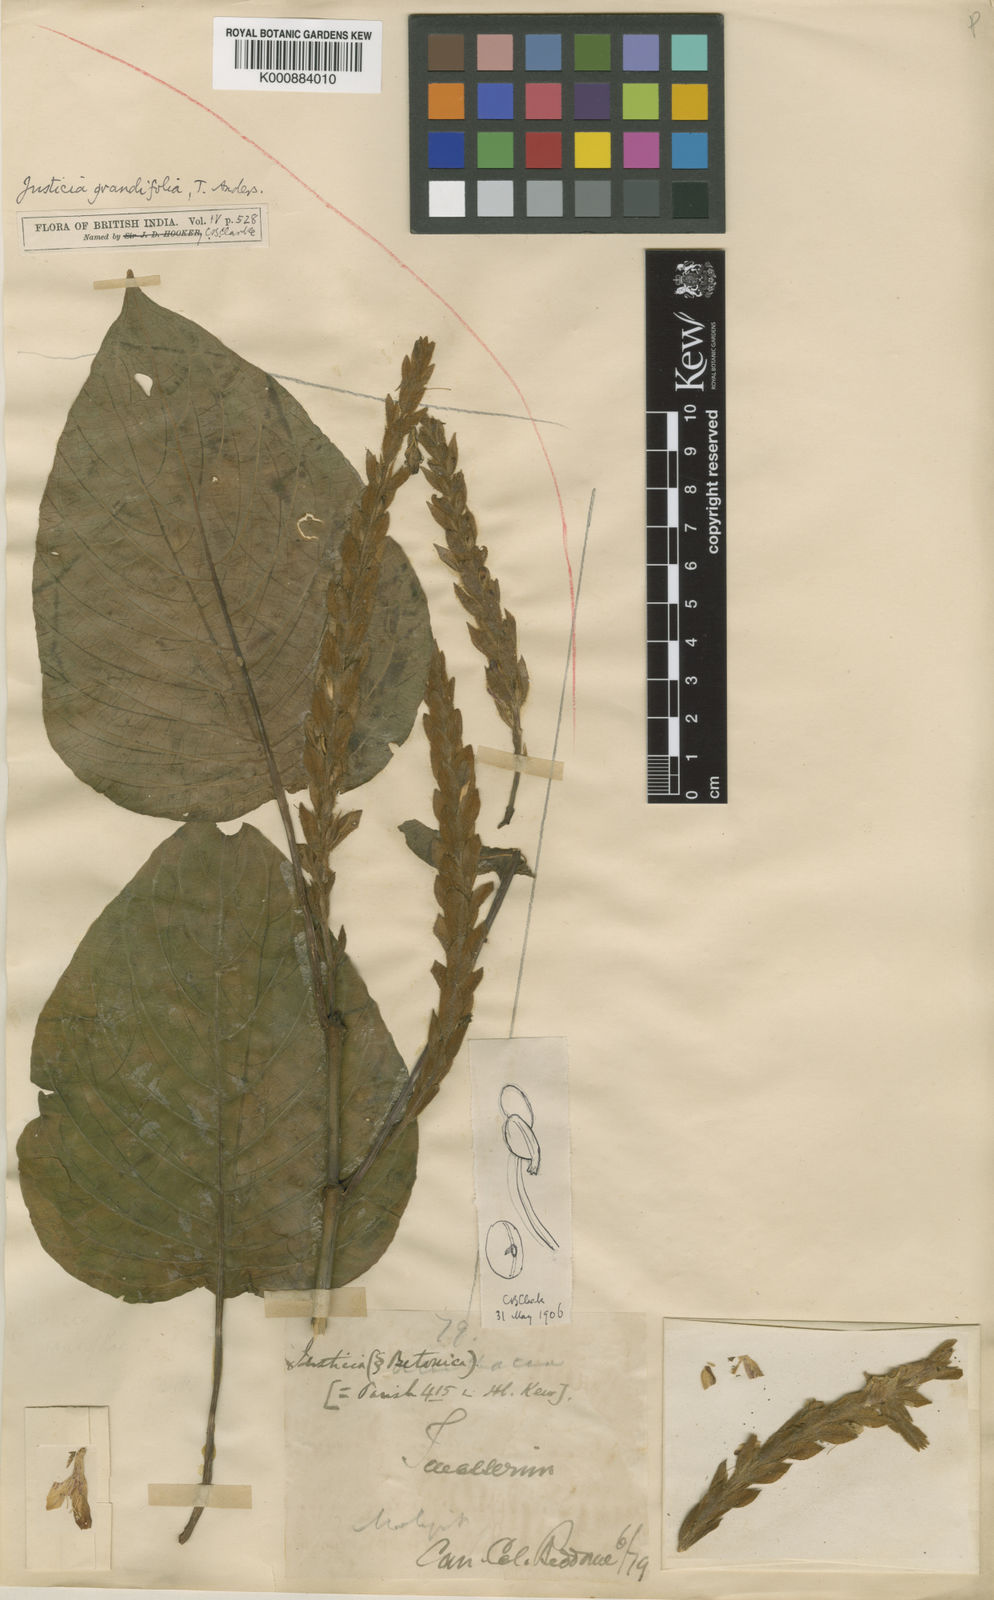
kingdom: Plantae
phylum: Tracheophyta
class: Magnoliopsida
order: Lamiales
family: Acanthaceae
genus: Justicia
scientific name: Justicia grandifolia
